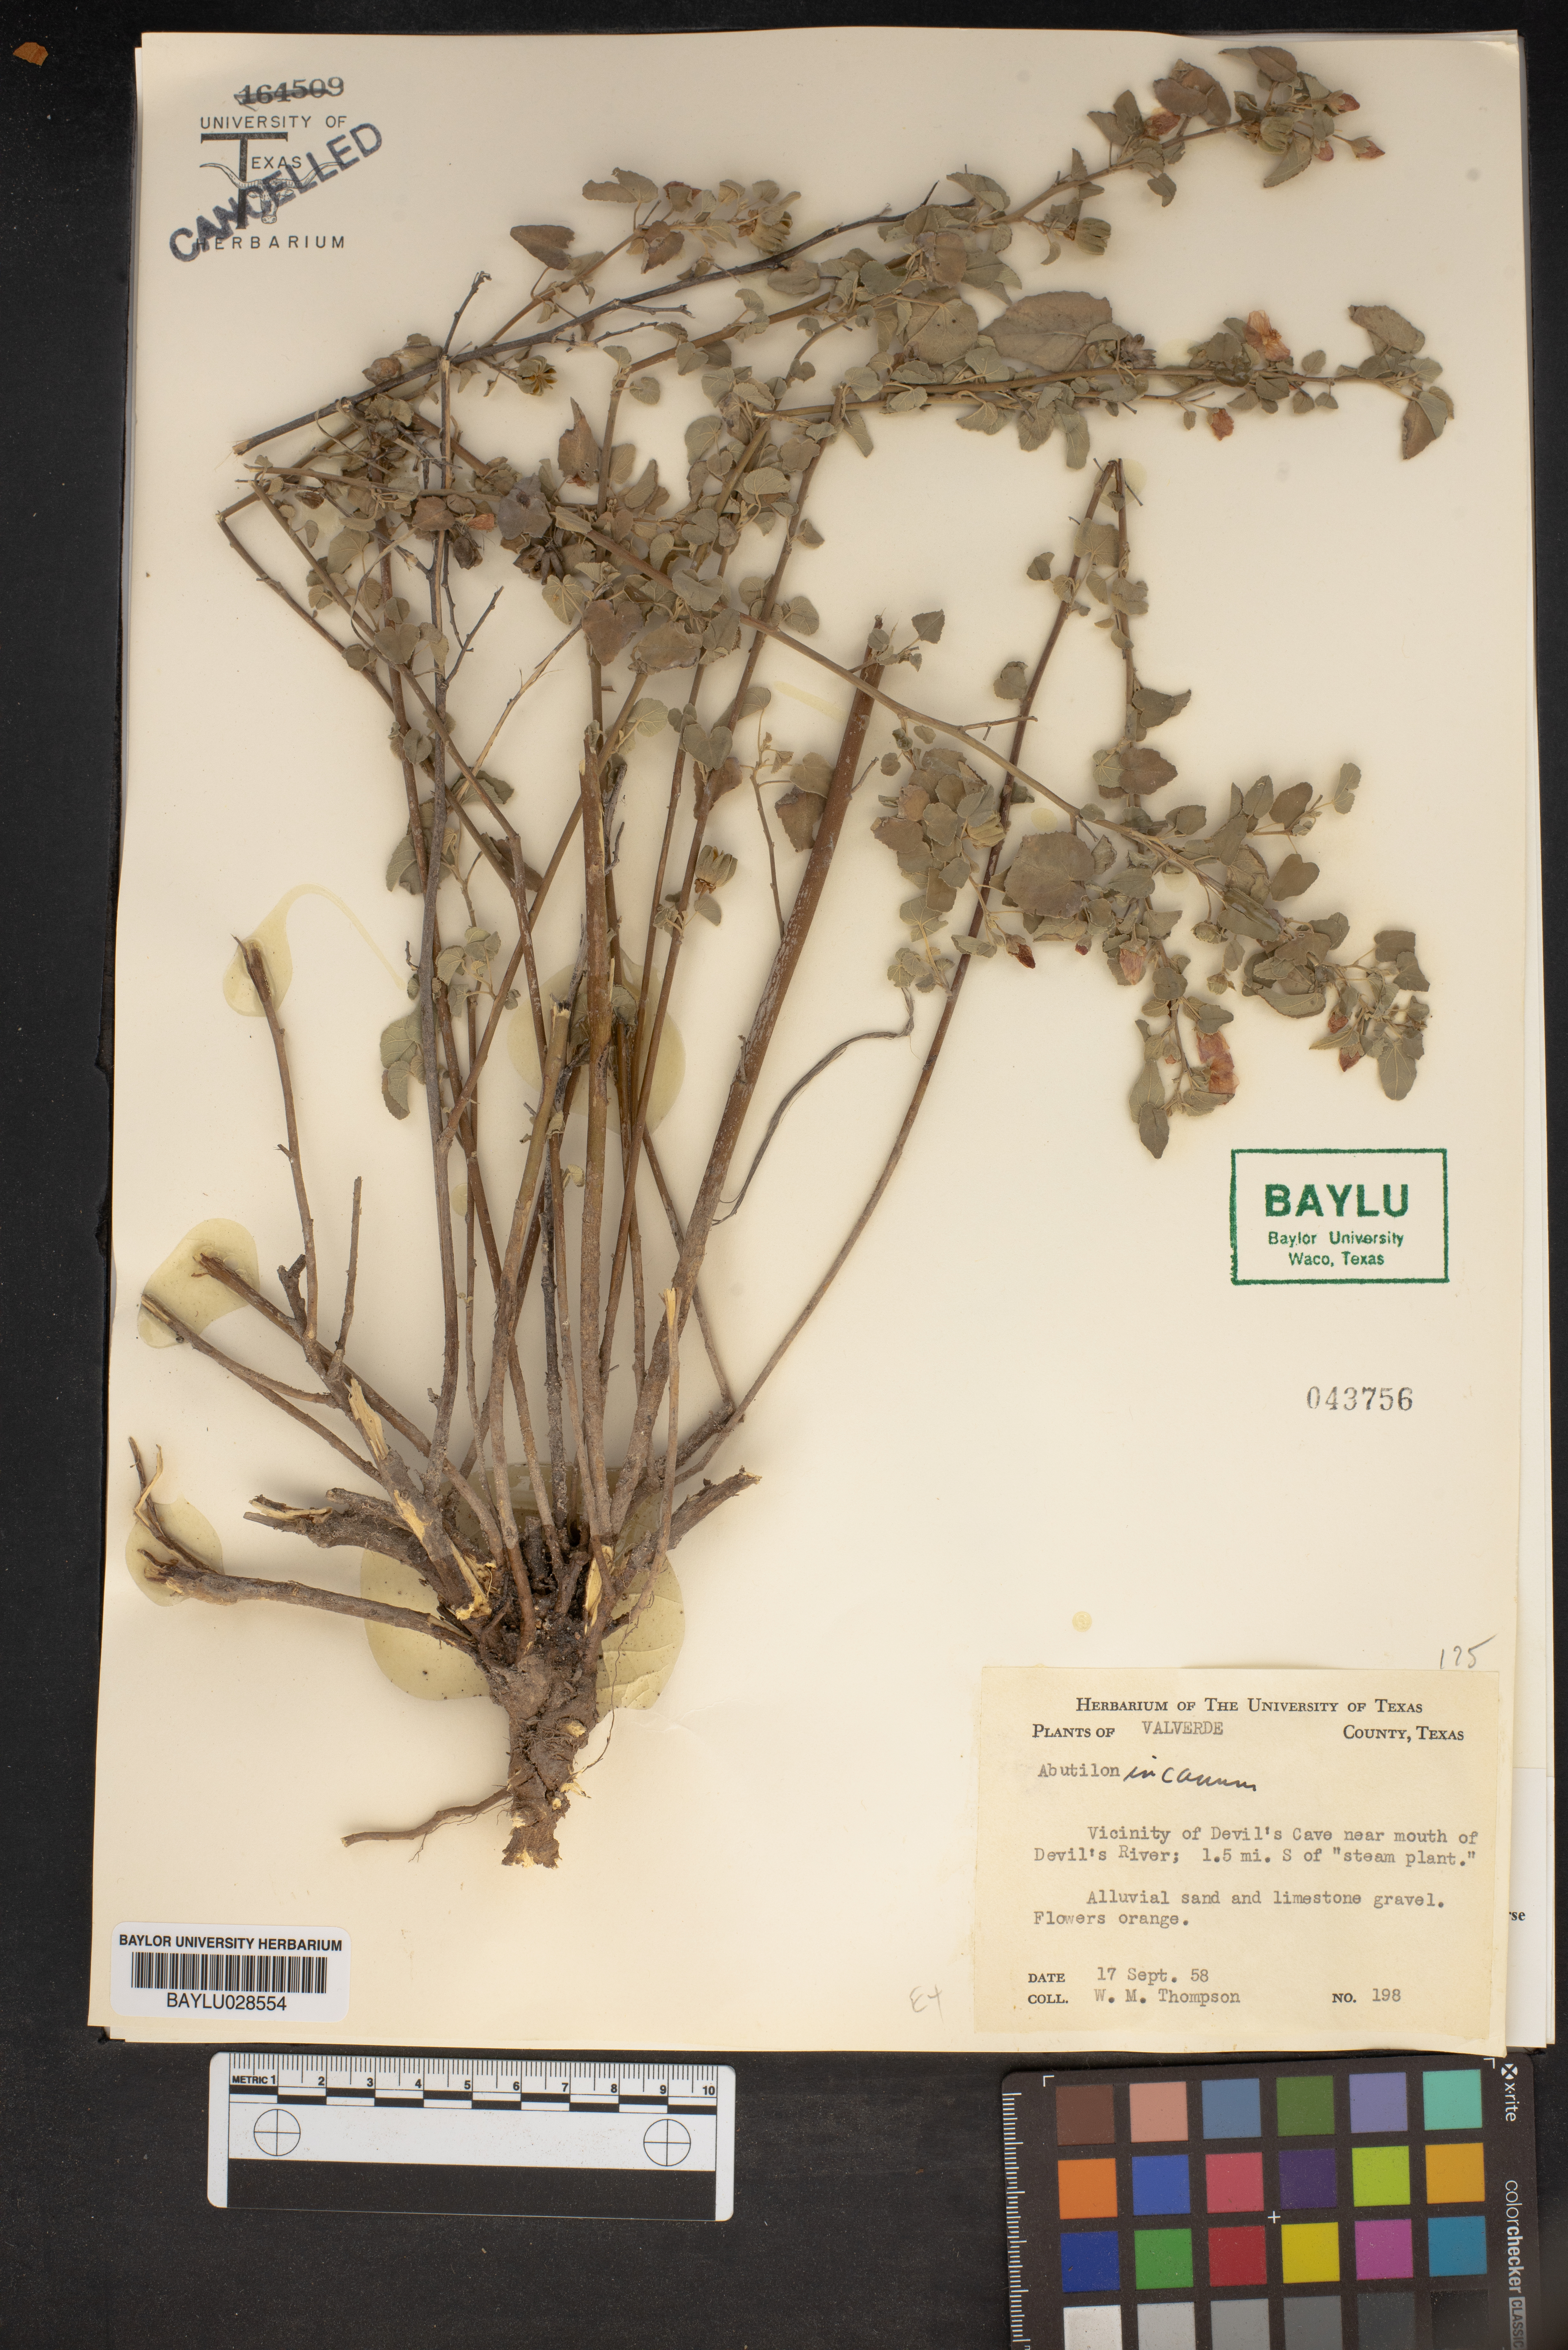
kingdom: Plantae
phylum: Tracheophyta
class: Magnoliopsida
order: Malvales
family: Malvaceae
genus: Abutilon
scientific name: Abutilon incanum
